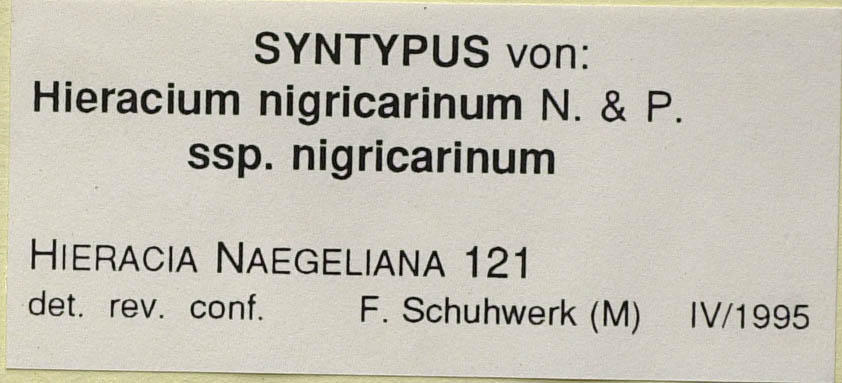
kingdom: Plantae
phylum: Tracheophyta
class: Magnoliopsida
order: Asterales
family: Asteraceae
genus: Pilosella
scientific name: Pilosella lathraea
